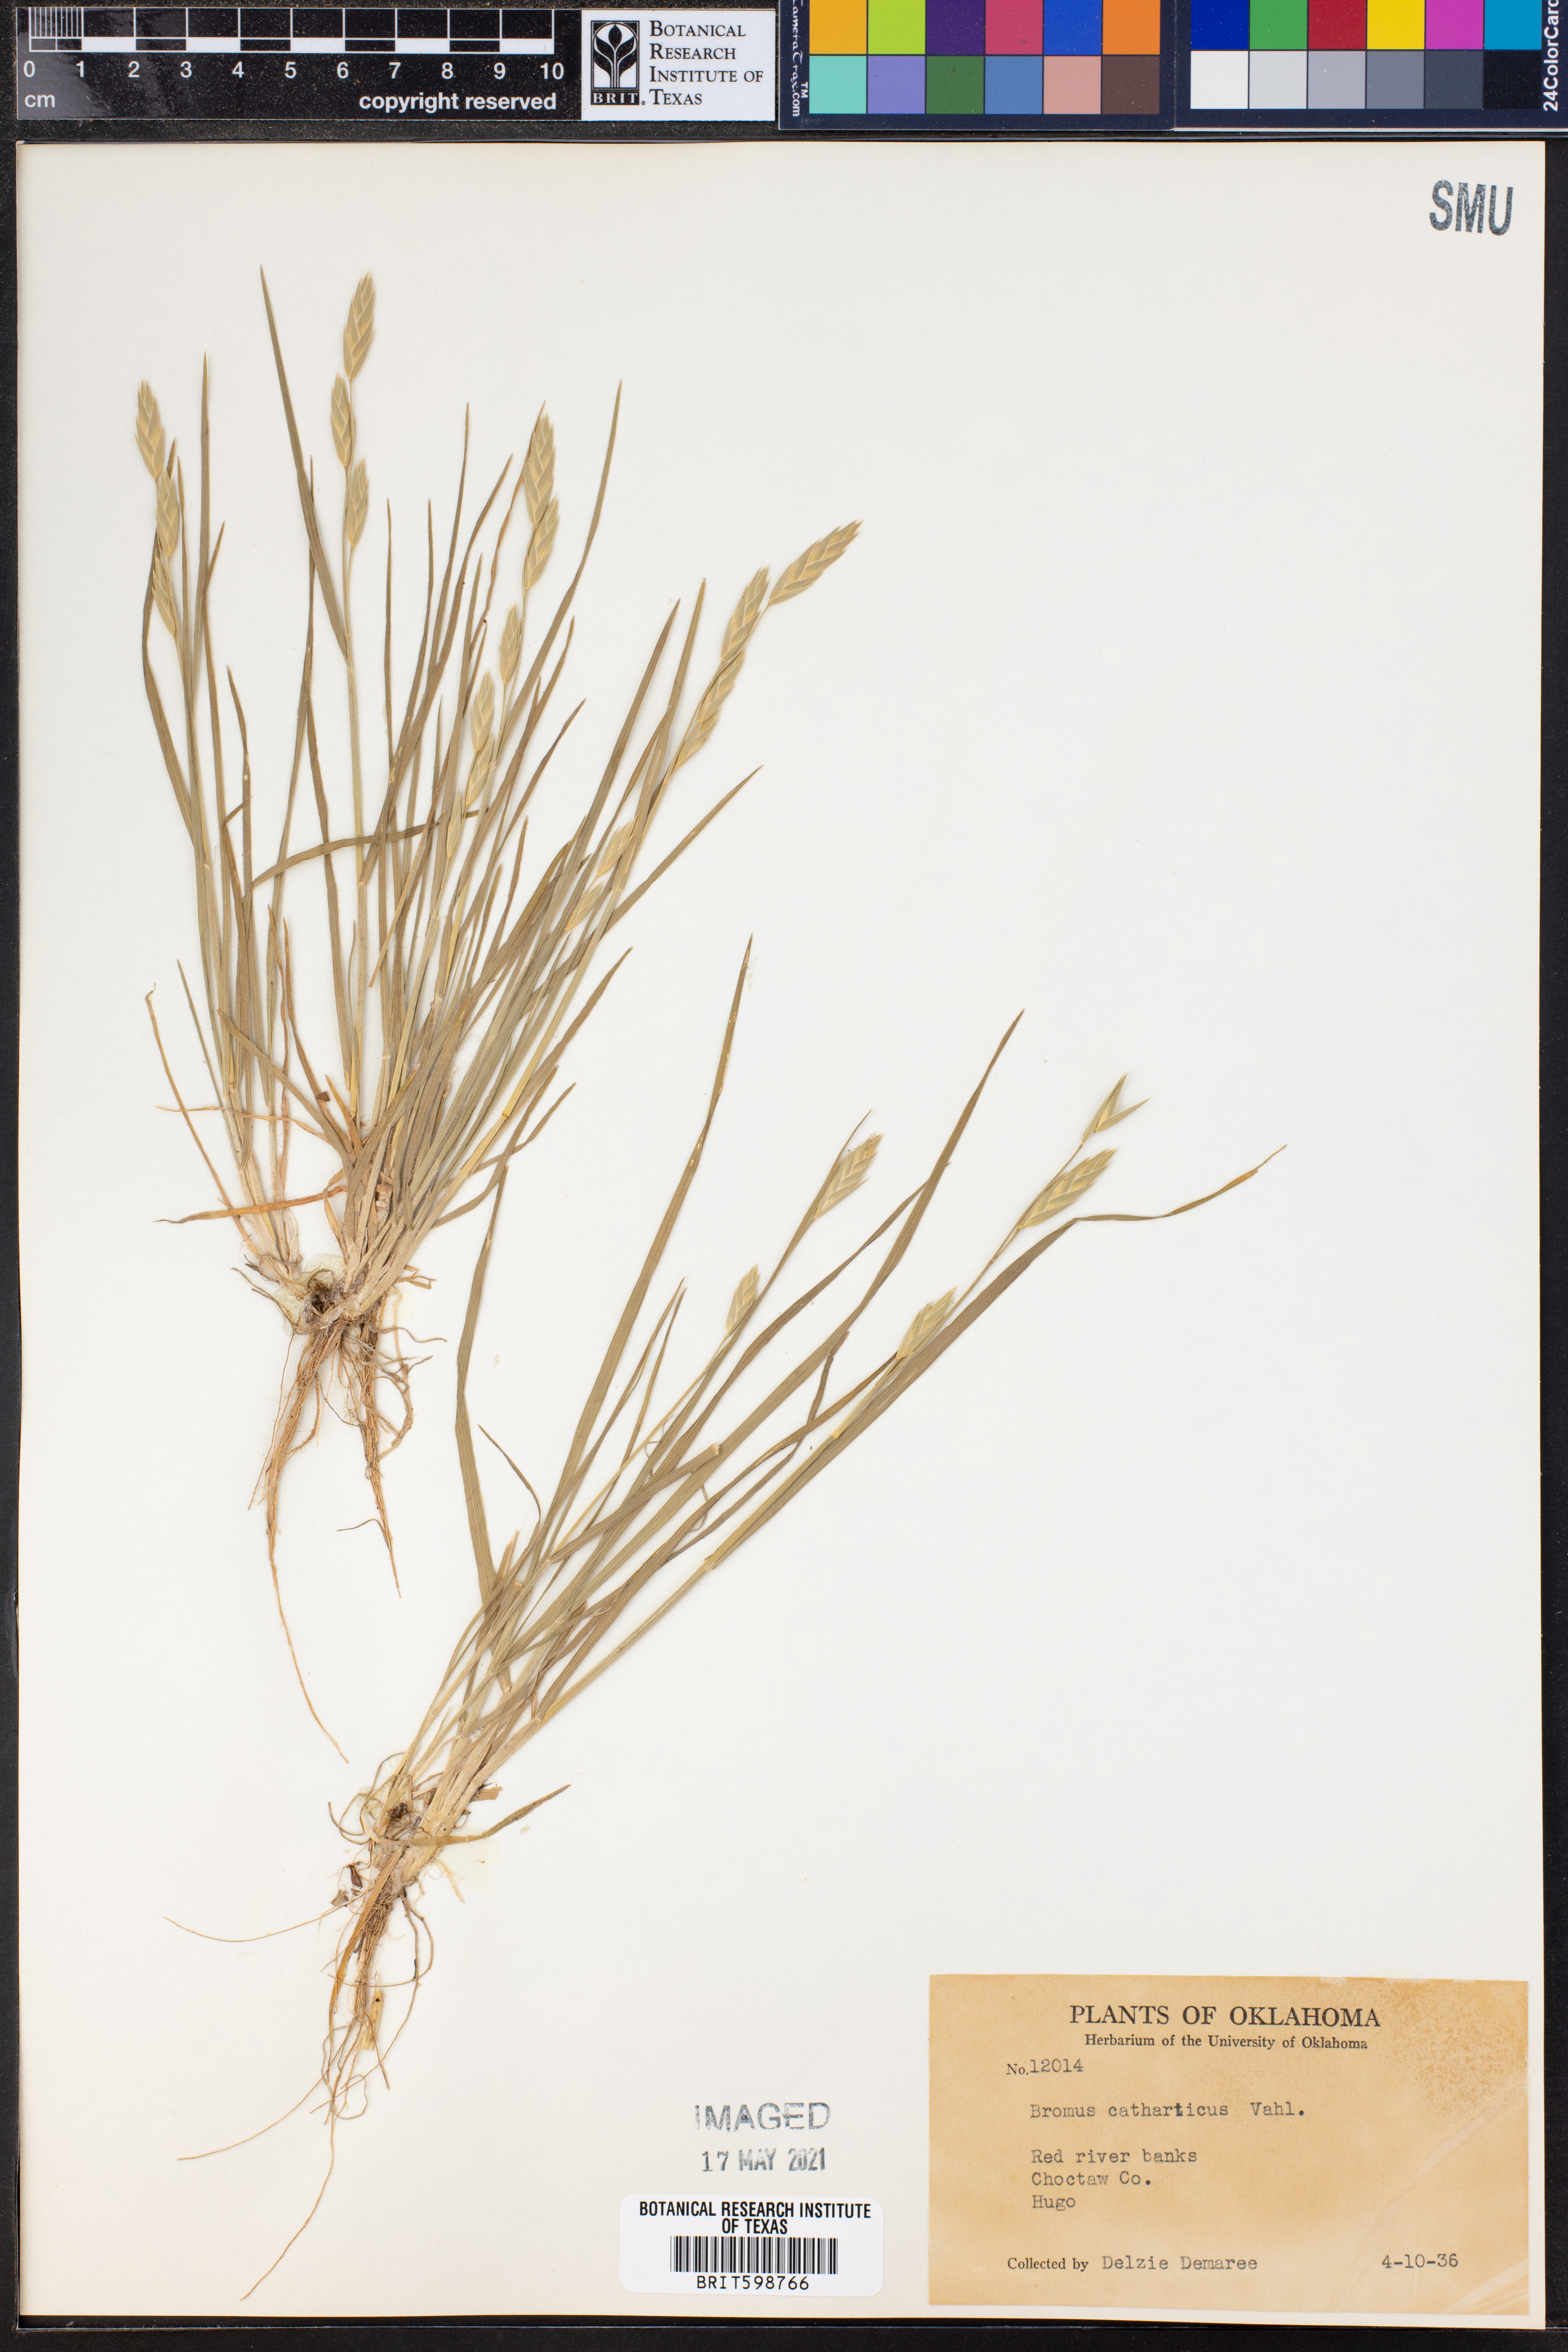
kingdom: Plantae
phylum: Tracheophyta
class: Liliopsida
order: Poales
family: Poaceae
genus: Bromus
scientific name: Bromus catharticus
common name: Rescuegrass
